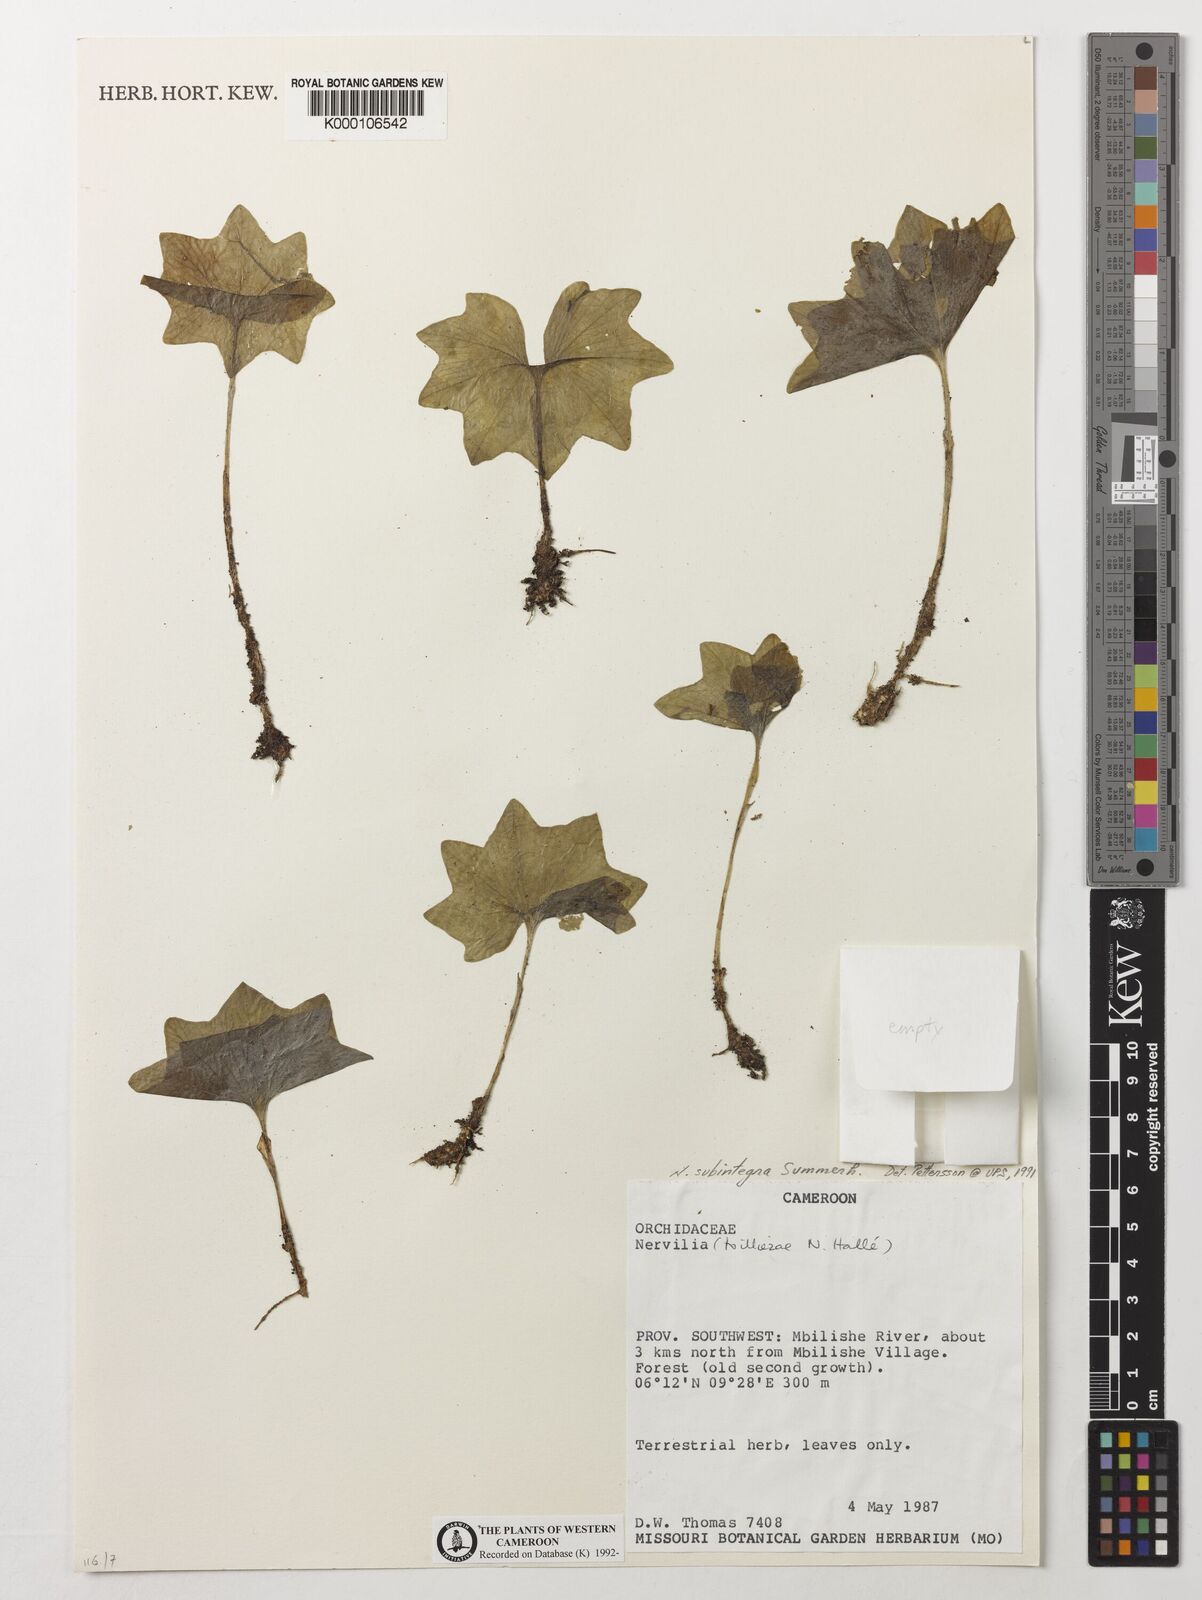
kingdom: Plantae
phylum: Tracheophyta
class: Liliopsida
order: Asparagales
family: Orchidaceae
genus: Nervilia
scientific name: Nervilia subintegra
